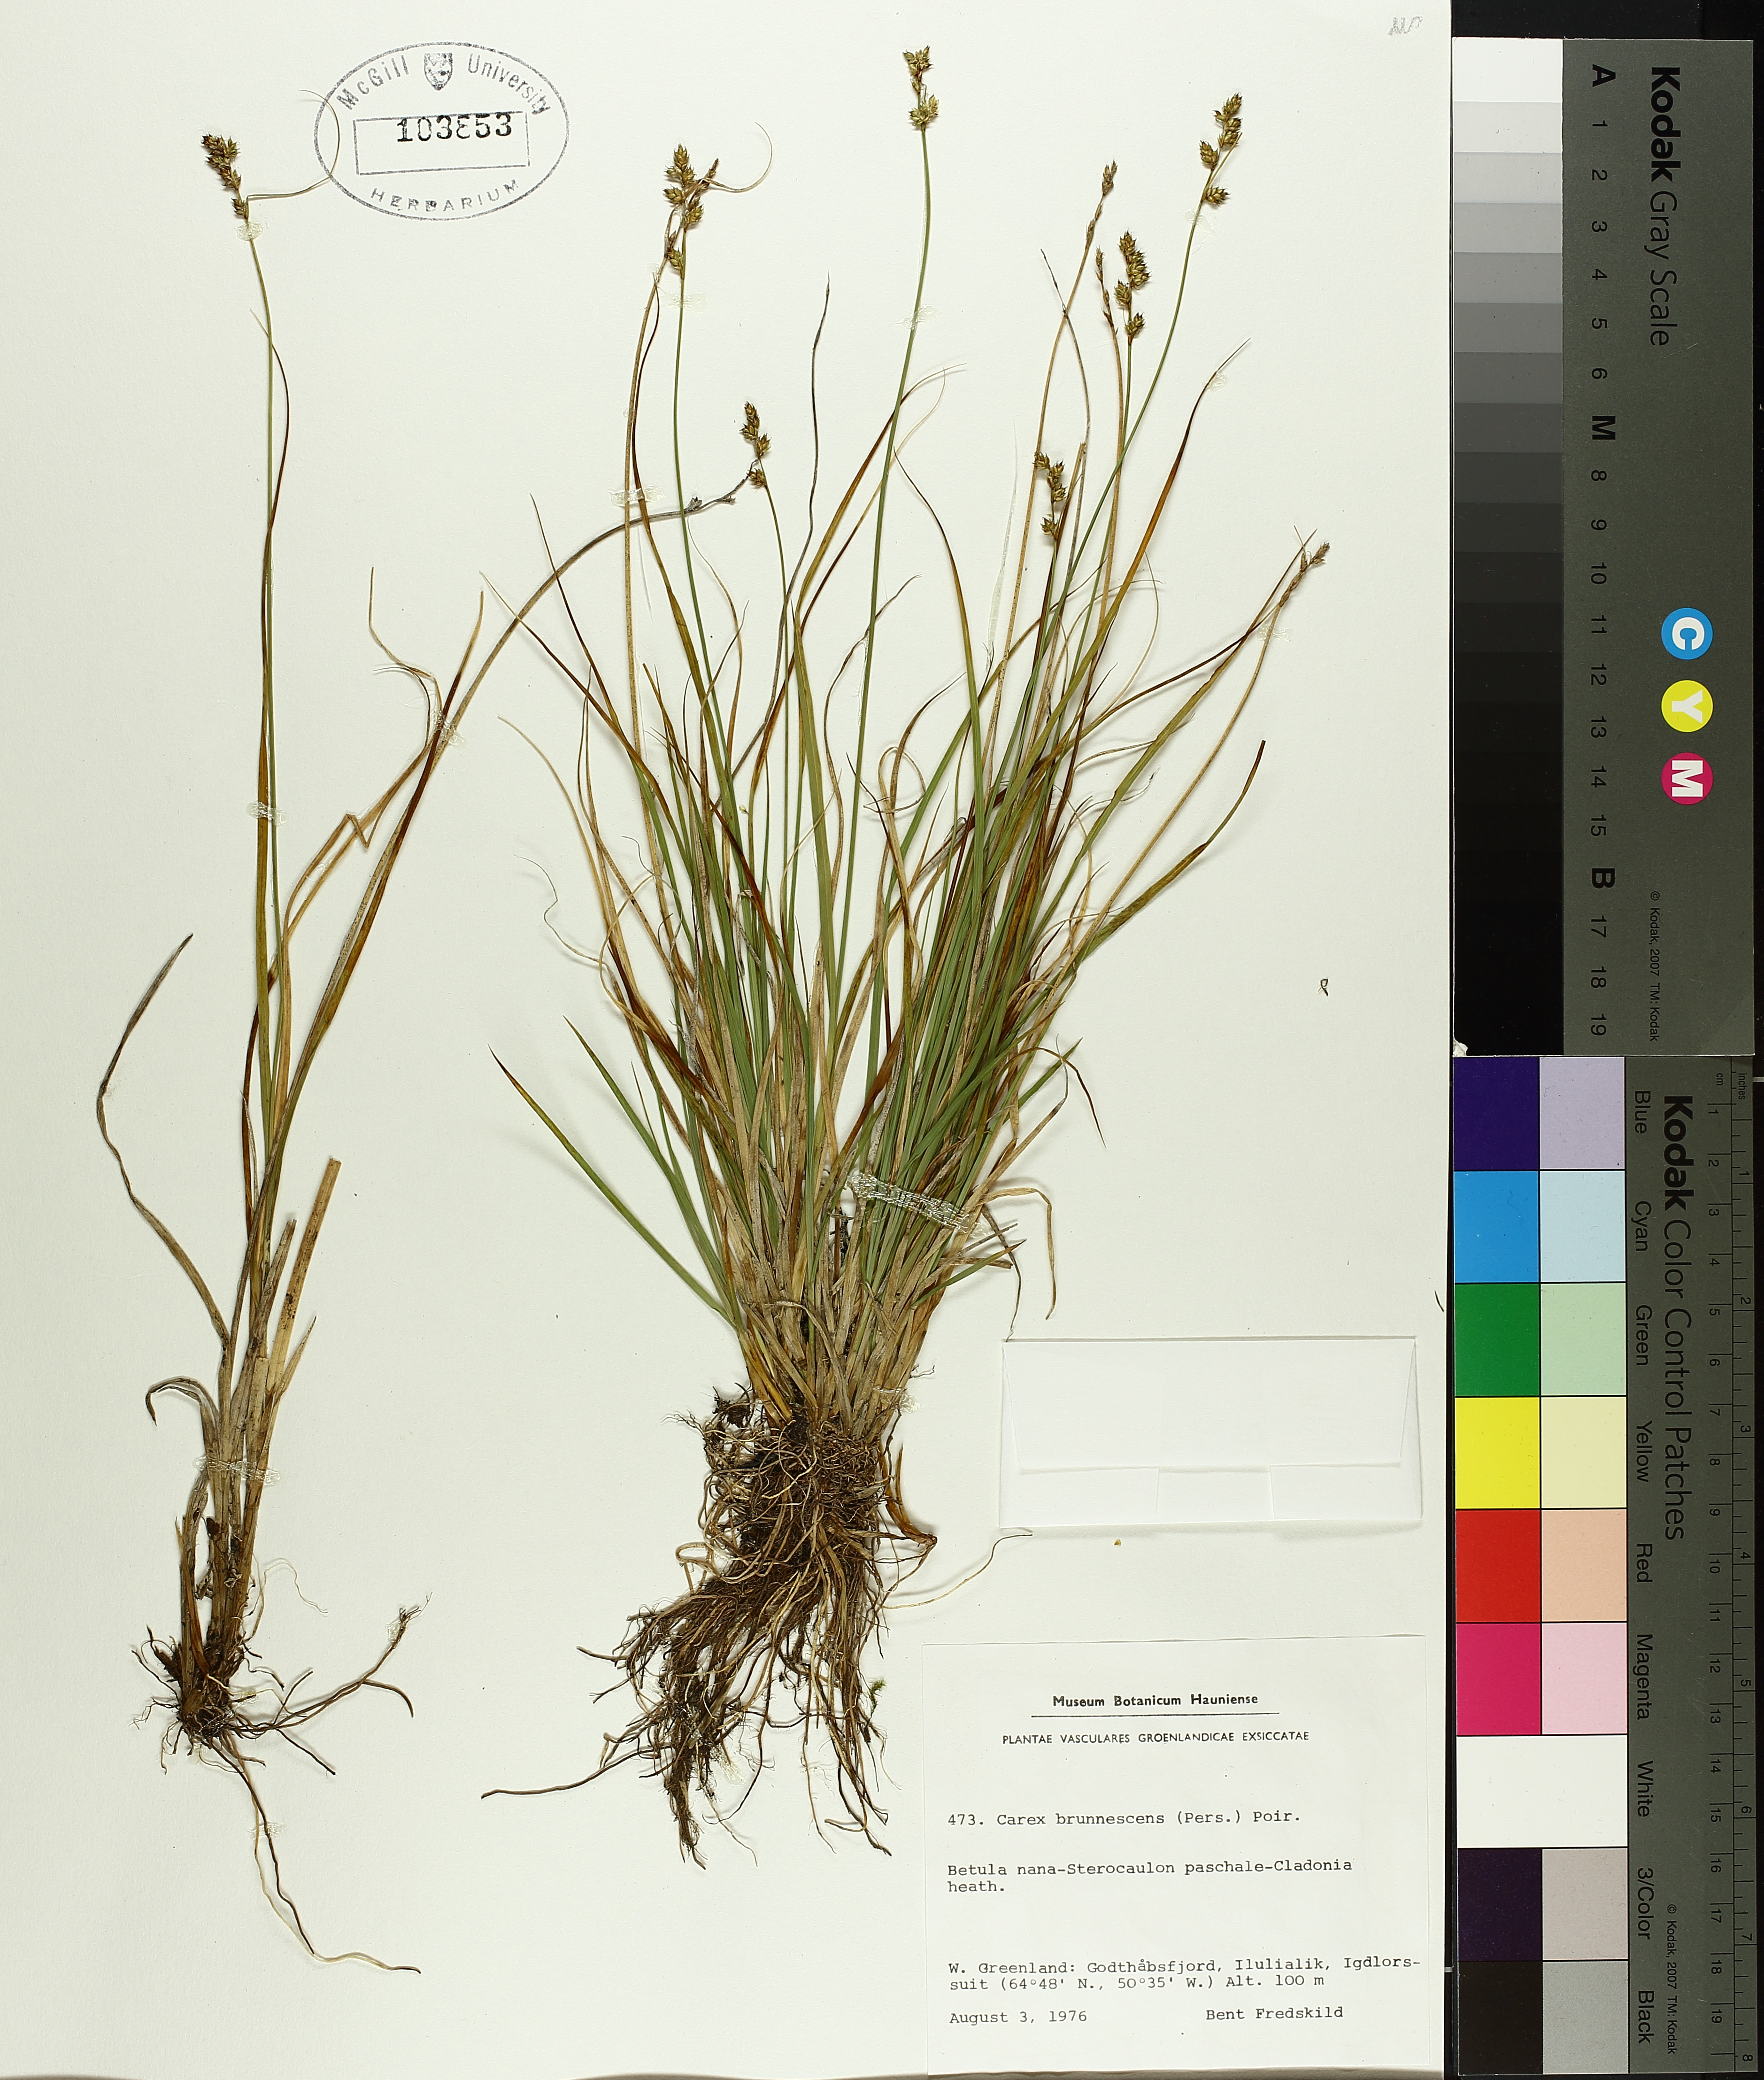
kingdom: Plantae
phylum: Tracheophyta
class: Liliopsida
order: Poales
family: Cyperaceae
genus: Carex
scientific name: Carex brunnescens
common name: Brown sedge
